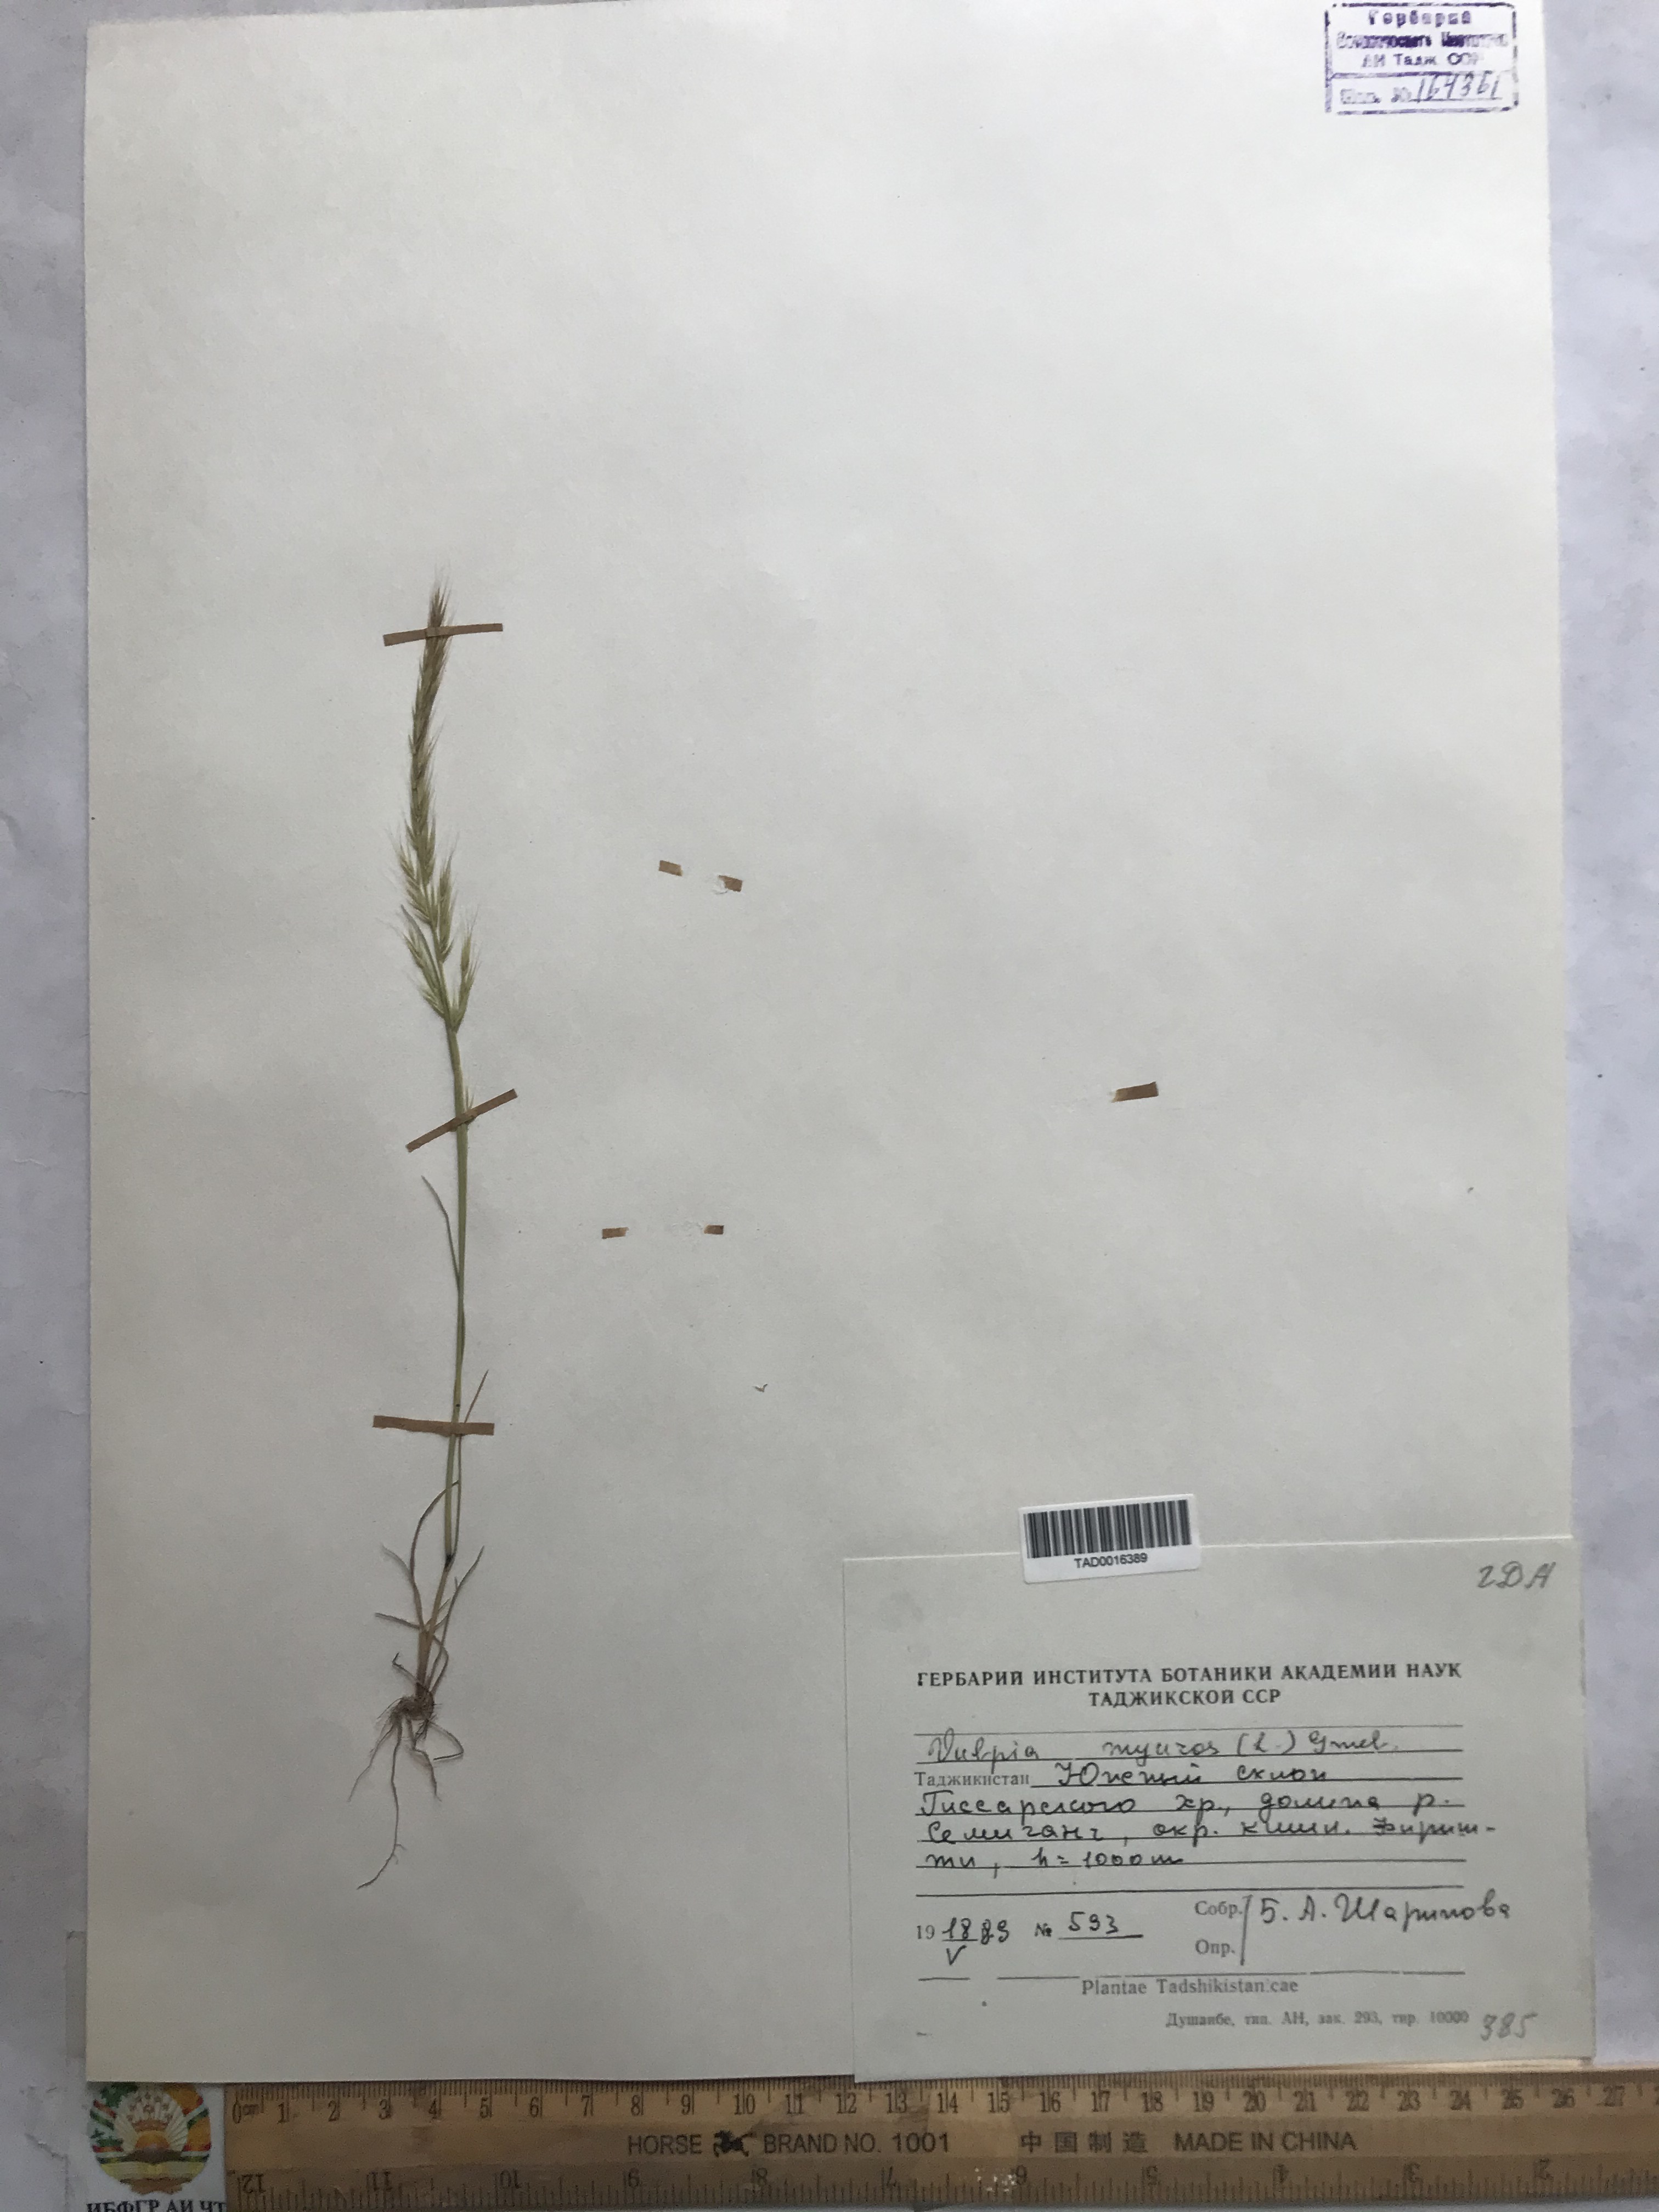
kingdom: Plantae
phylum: Tracheophyta
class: Liliopsida
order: Poales
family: Poaceae
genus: Festuca
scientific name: Festuca myuros
